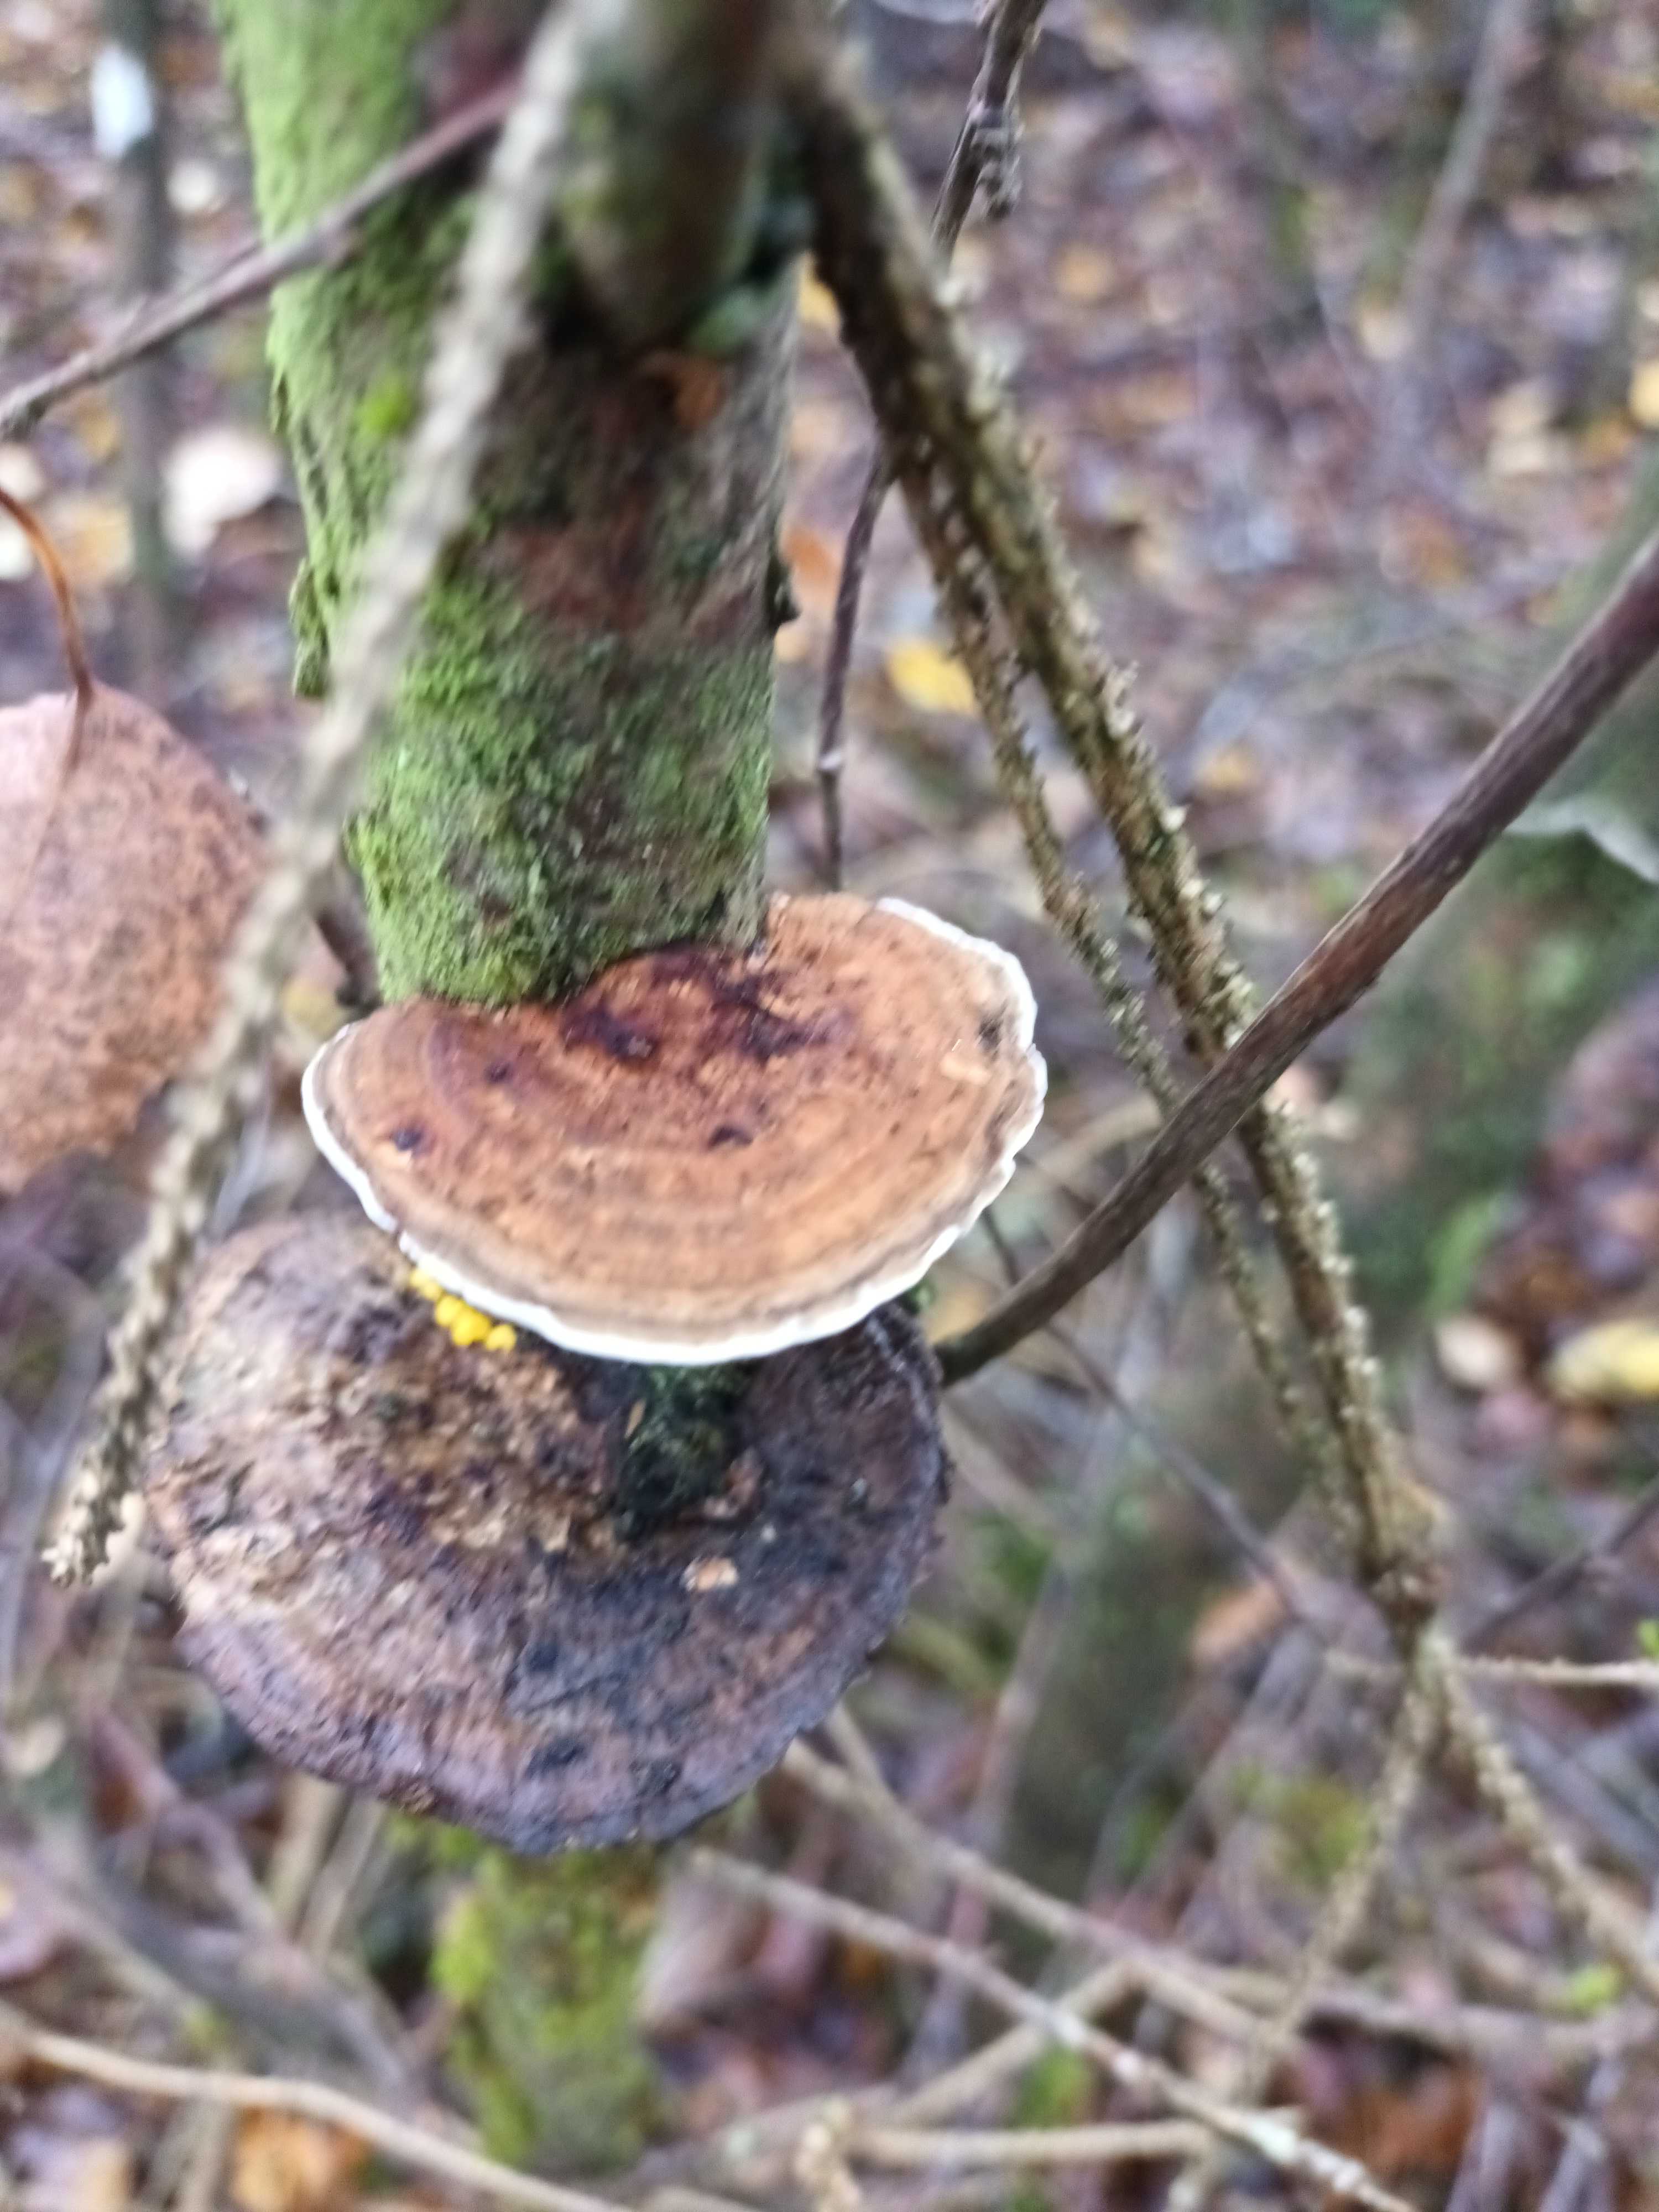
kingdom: Fungi
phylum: Basidiomycota
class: Agaricomycetes
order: Polyporales
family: Polyporaceae
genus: Daedaleopsis
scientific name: Daedaleopsis confragosa
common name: rødmende læderporesvamp
